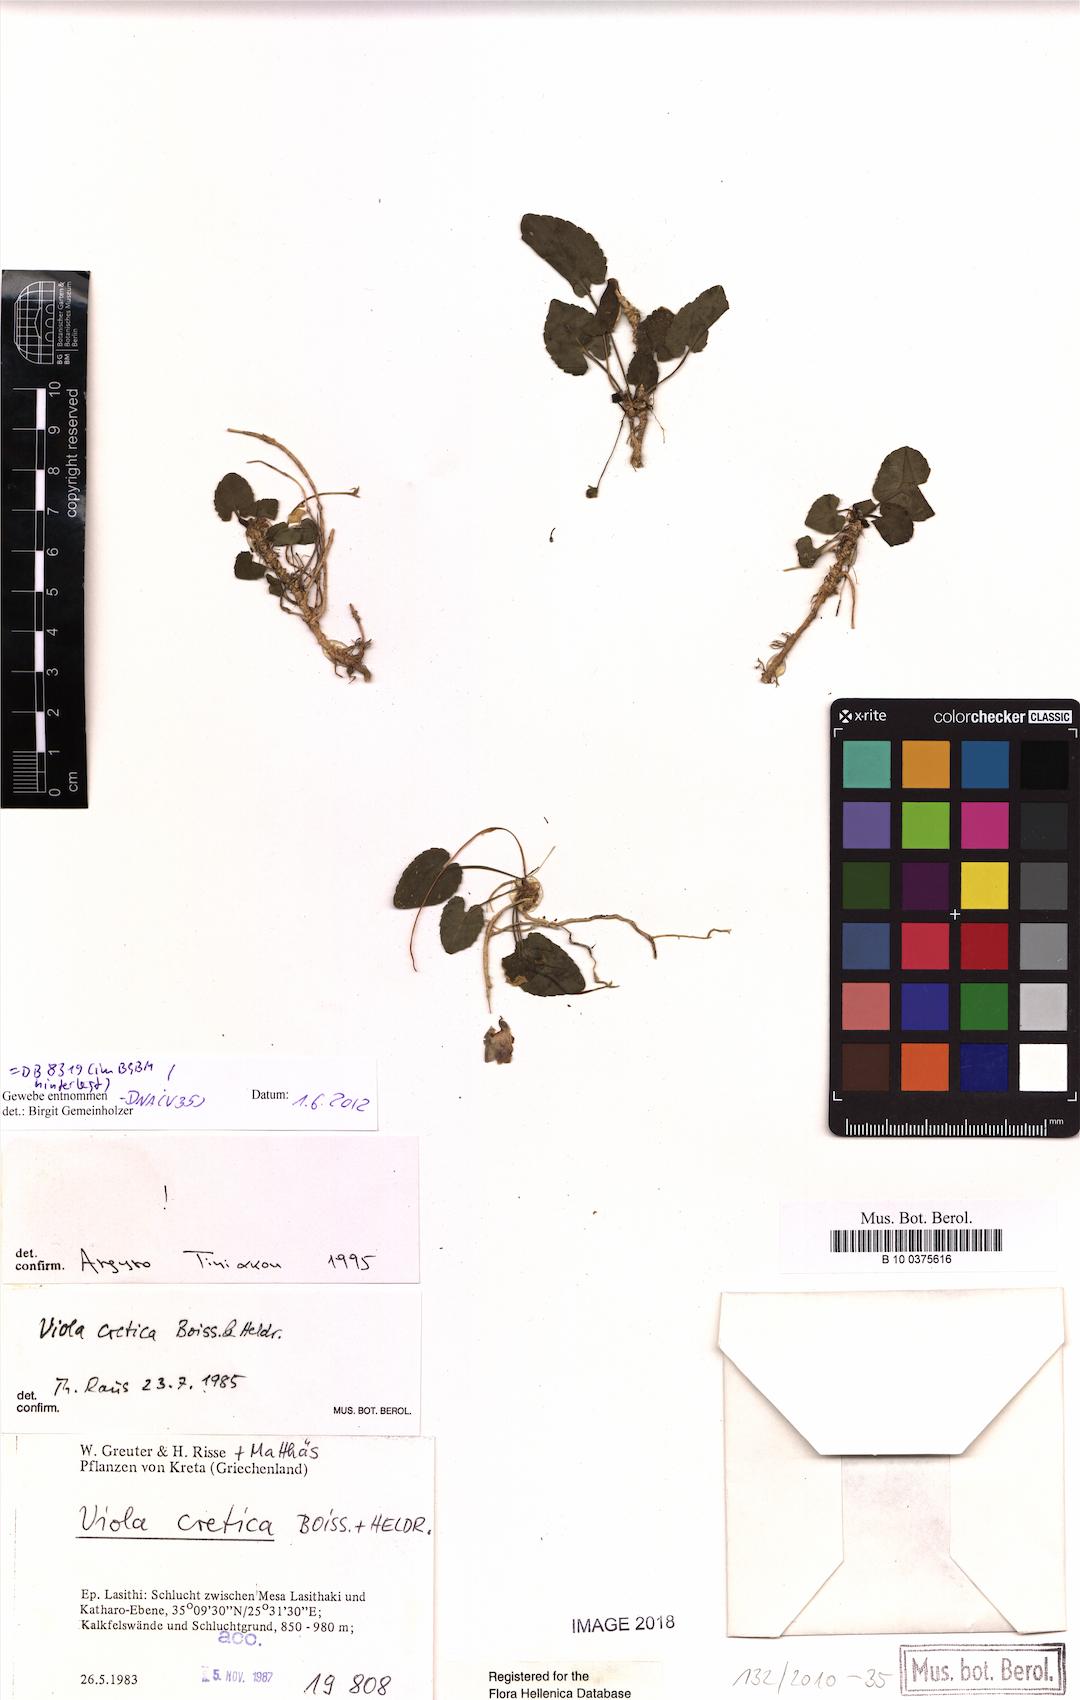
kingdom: Plantae
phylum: Tracheophyta
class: Magnoliopsida
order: Malpighiales
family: Violaceae
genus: Viola
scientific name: Viola alba
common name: White violet
